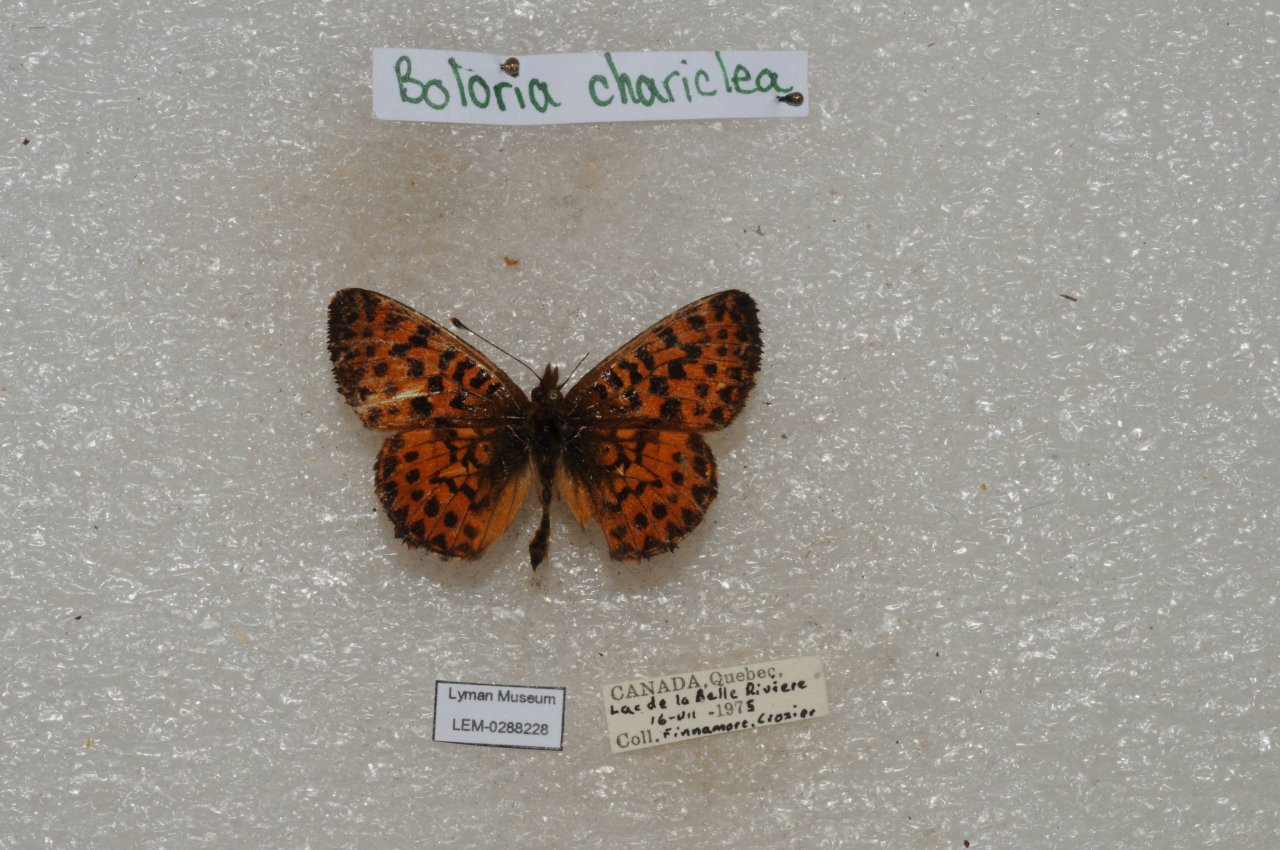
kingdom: Animalia
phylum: Arthropoda
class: Insecta
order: Lepidoptera
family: Nymphalidae
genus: Boloria
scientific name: Boloria chariclea
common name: Arctic Fritillary
